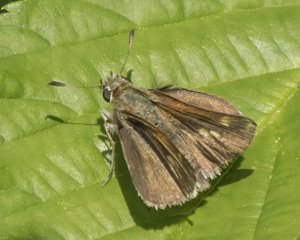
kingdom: Animalia
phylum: Arthropoda
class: Insecta
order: Lepidoptera
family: Hesperiidae
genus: Polites
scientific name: Polites themistocles
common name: Tawny-edged Skipper
